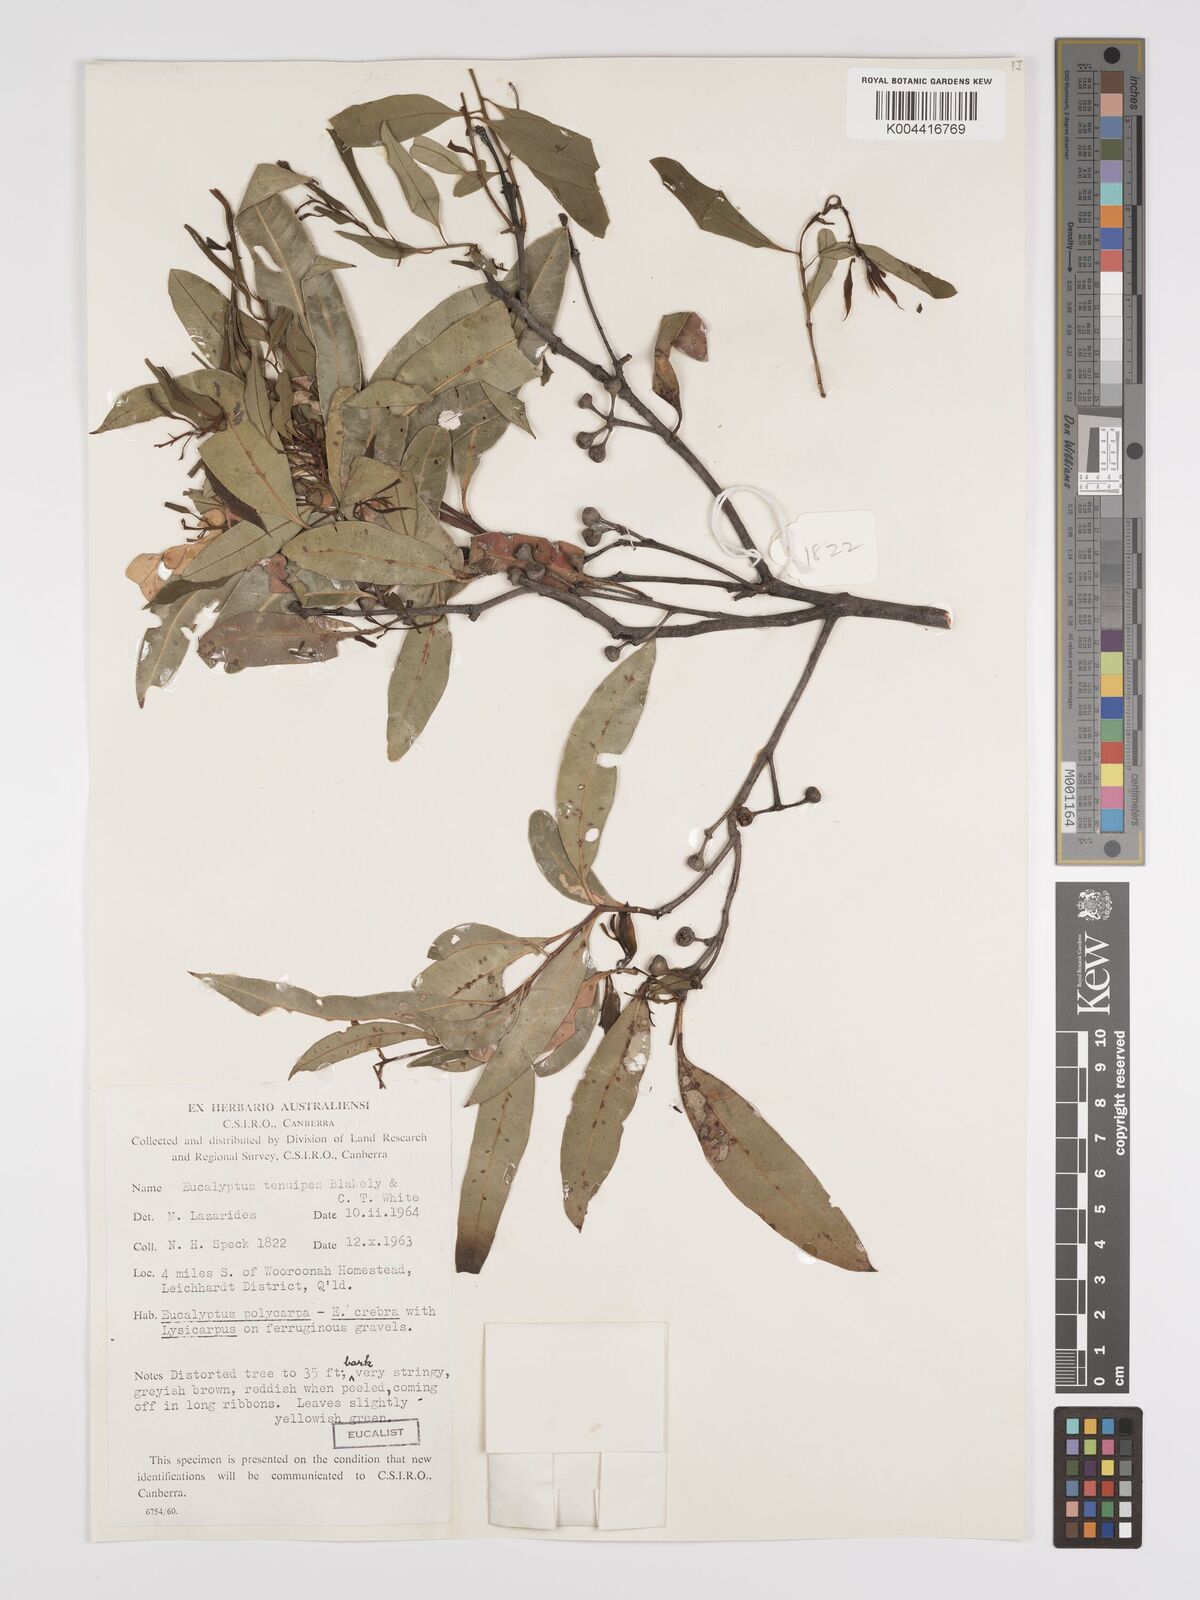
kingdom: Plantae
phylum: Tracheophyta
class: Magnoliopsida
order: Myrtales
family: Myrtaceae
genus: Eucalyptus
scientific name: Eucalyptus tenuipes
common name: Narrow-leaved white mahogany
